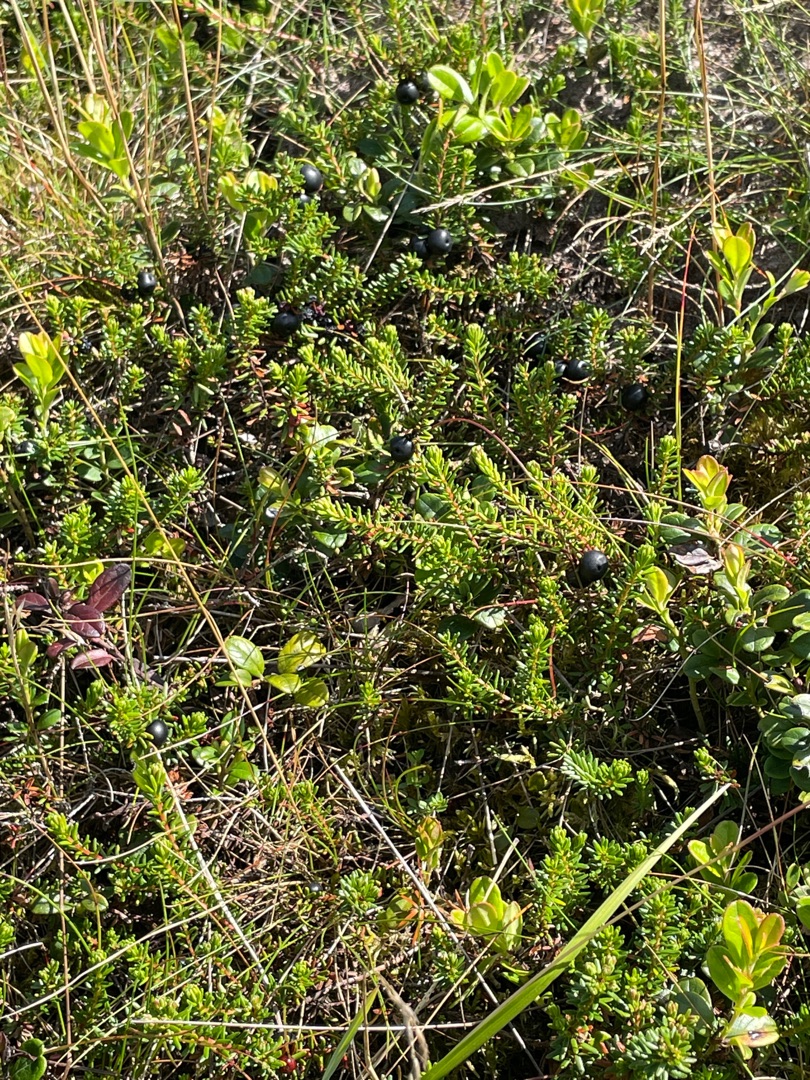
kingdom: Plantae
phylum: Tracheophyta
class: Magnoliopsida
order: Ericales
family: Ericaceae
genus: Empetrum
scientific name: Empetrum nigrum
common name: Revling
